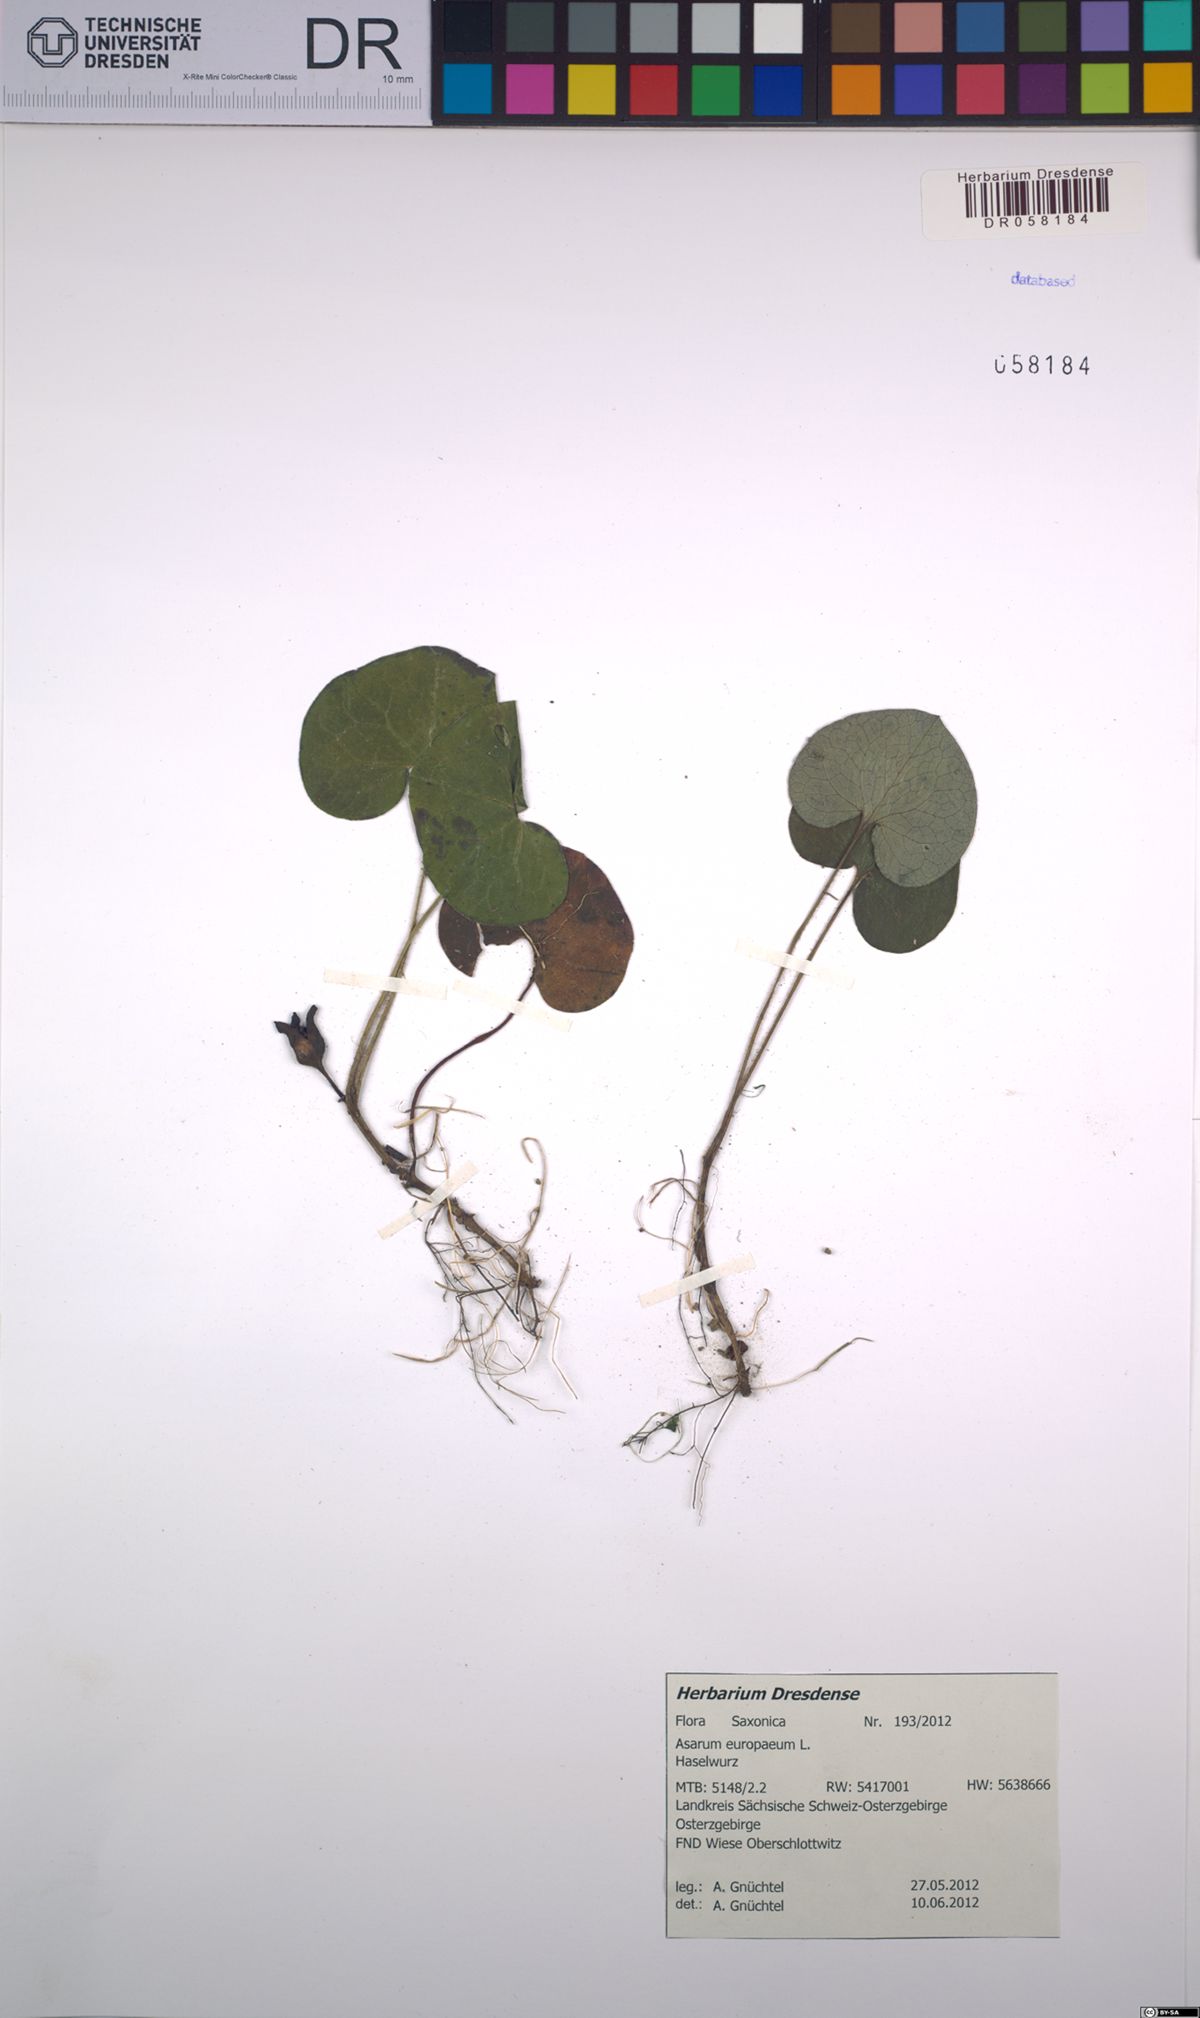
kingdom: Plantae
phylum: Tracheophyta
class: Magnoliopsida
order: Piperales
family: Aristolochiaceae
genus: Asarum
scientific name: Asarum europaeum
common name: Asarabacca
